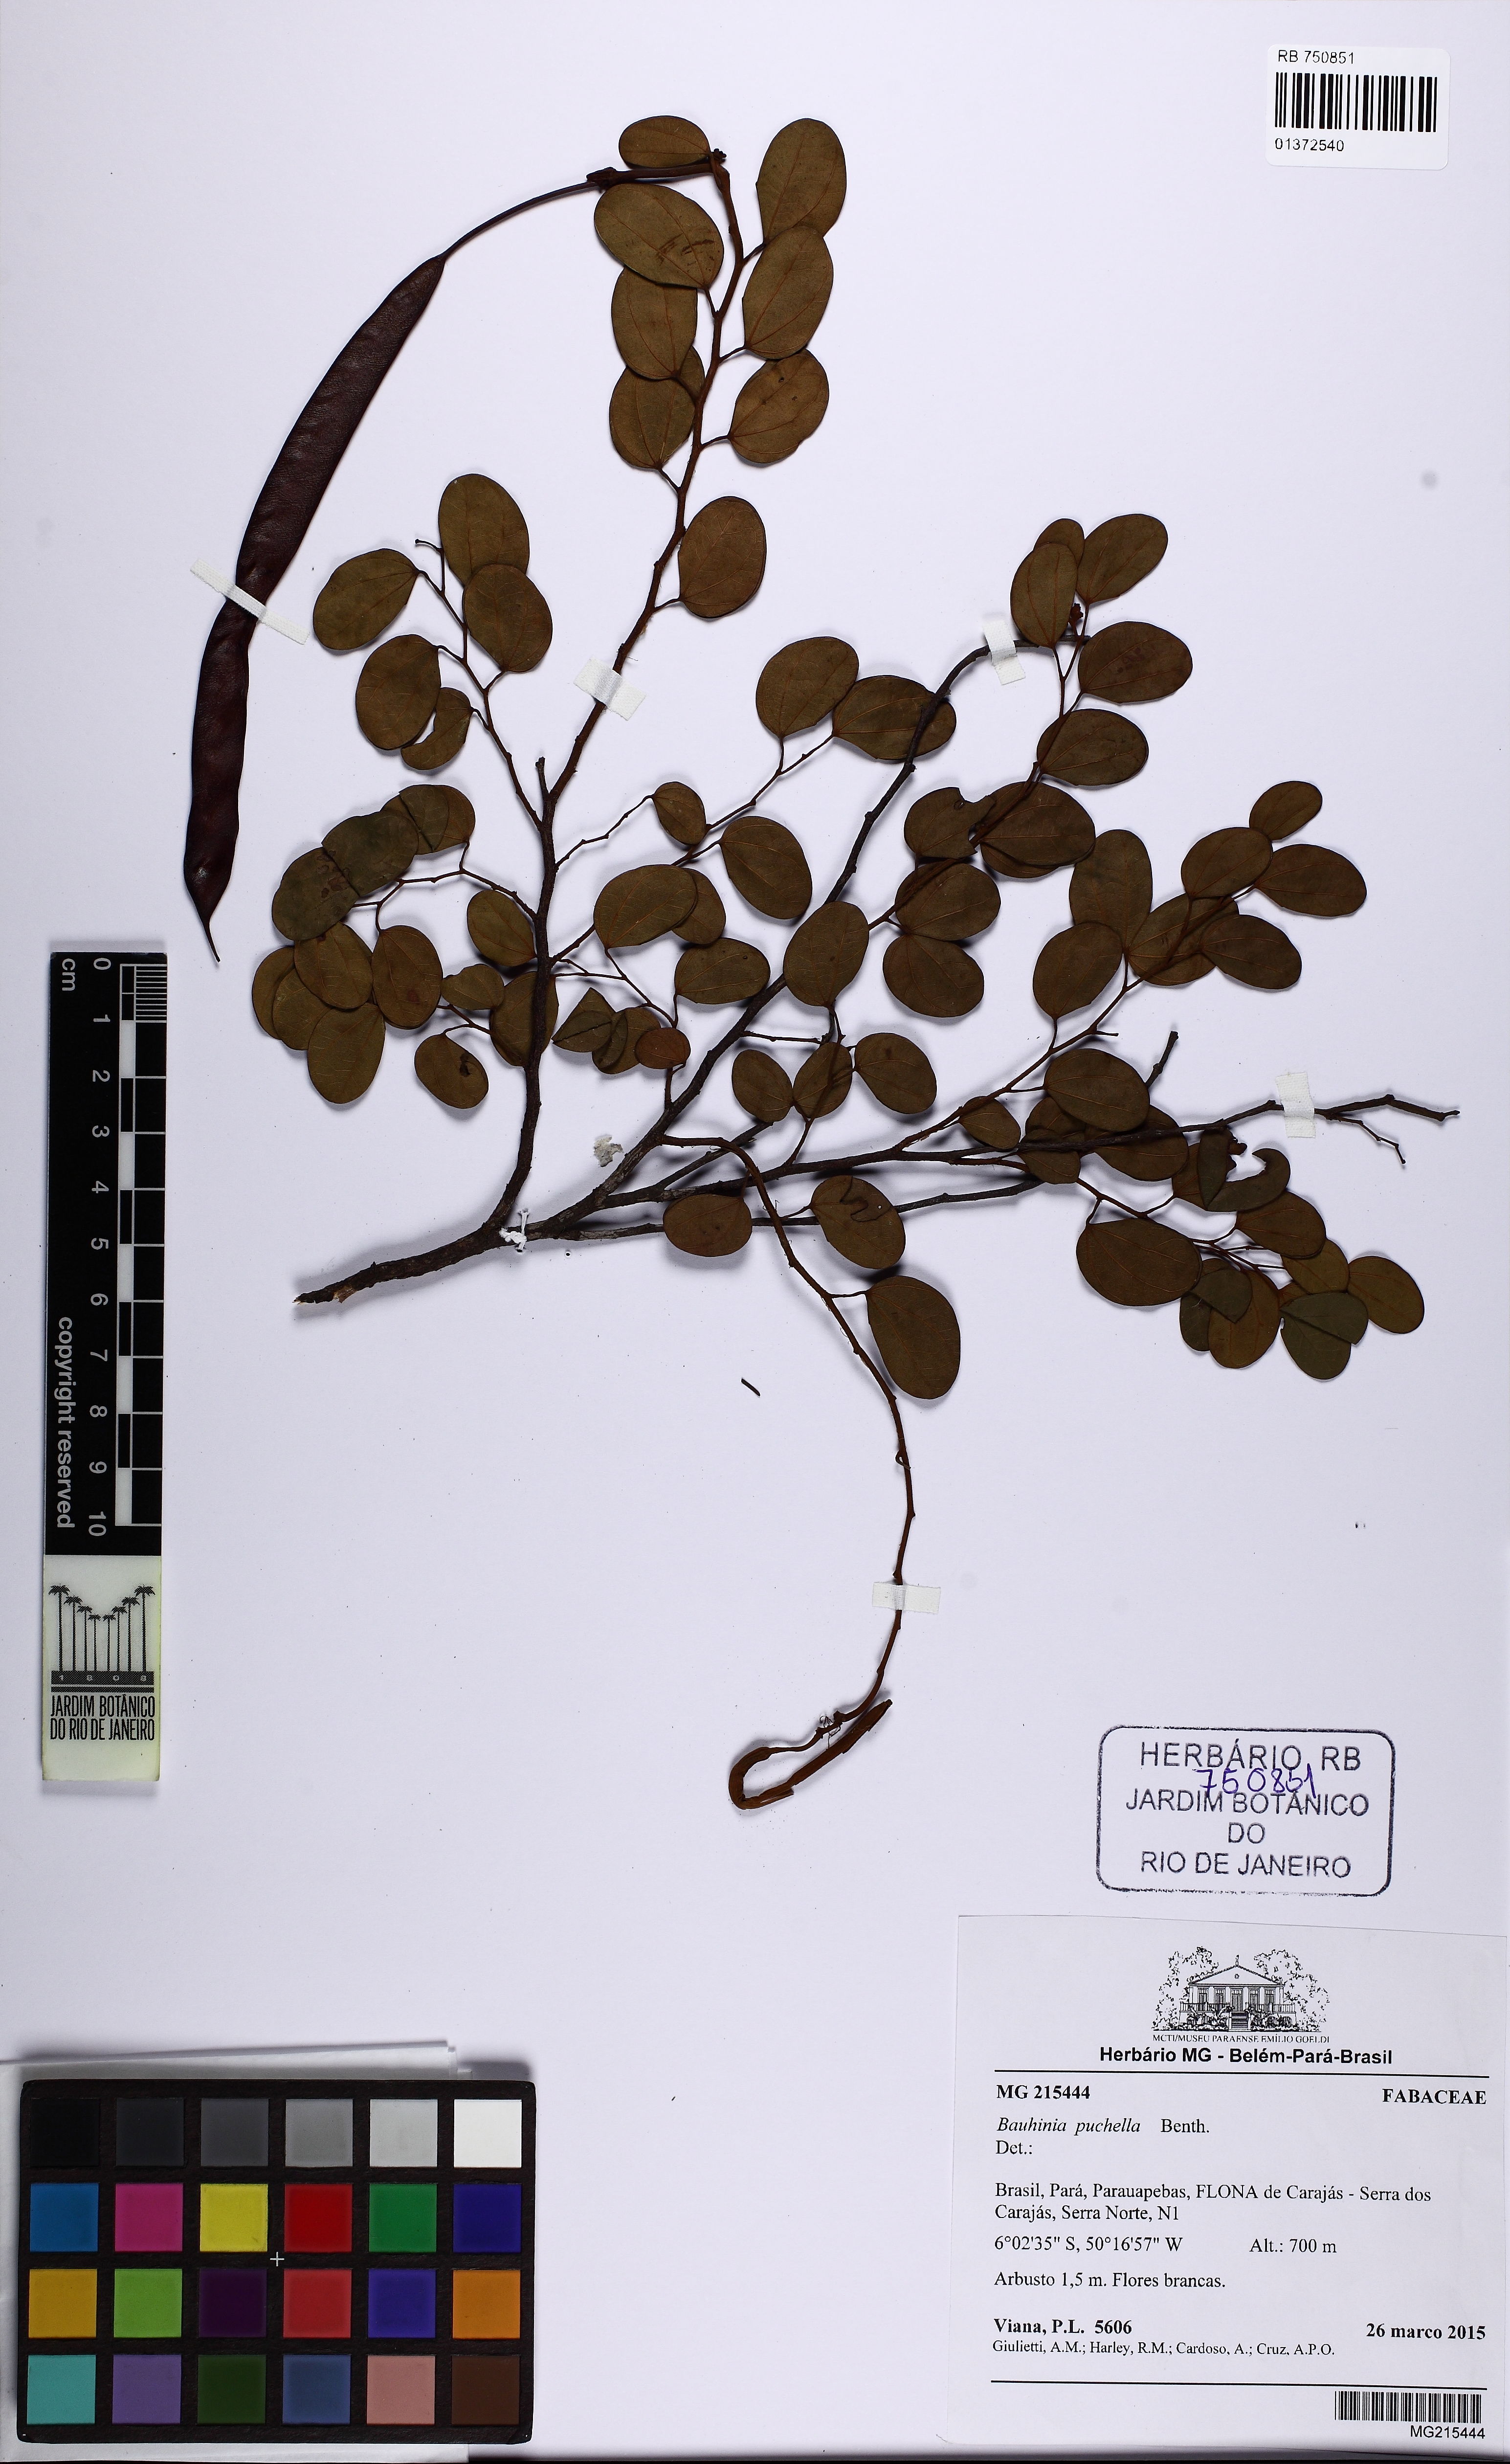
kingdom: Plantae
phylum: Tracheophyta
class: Magnoliopsida
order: Fabales
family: Fabaceae
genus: Bauhinia
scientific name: Bauhinia pulchella
